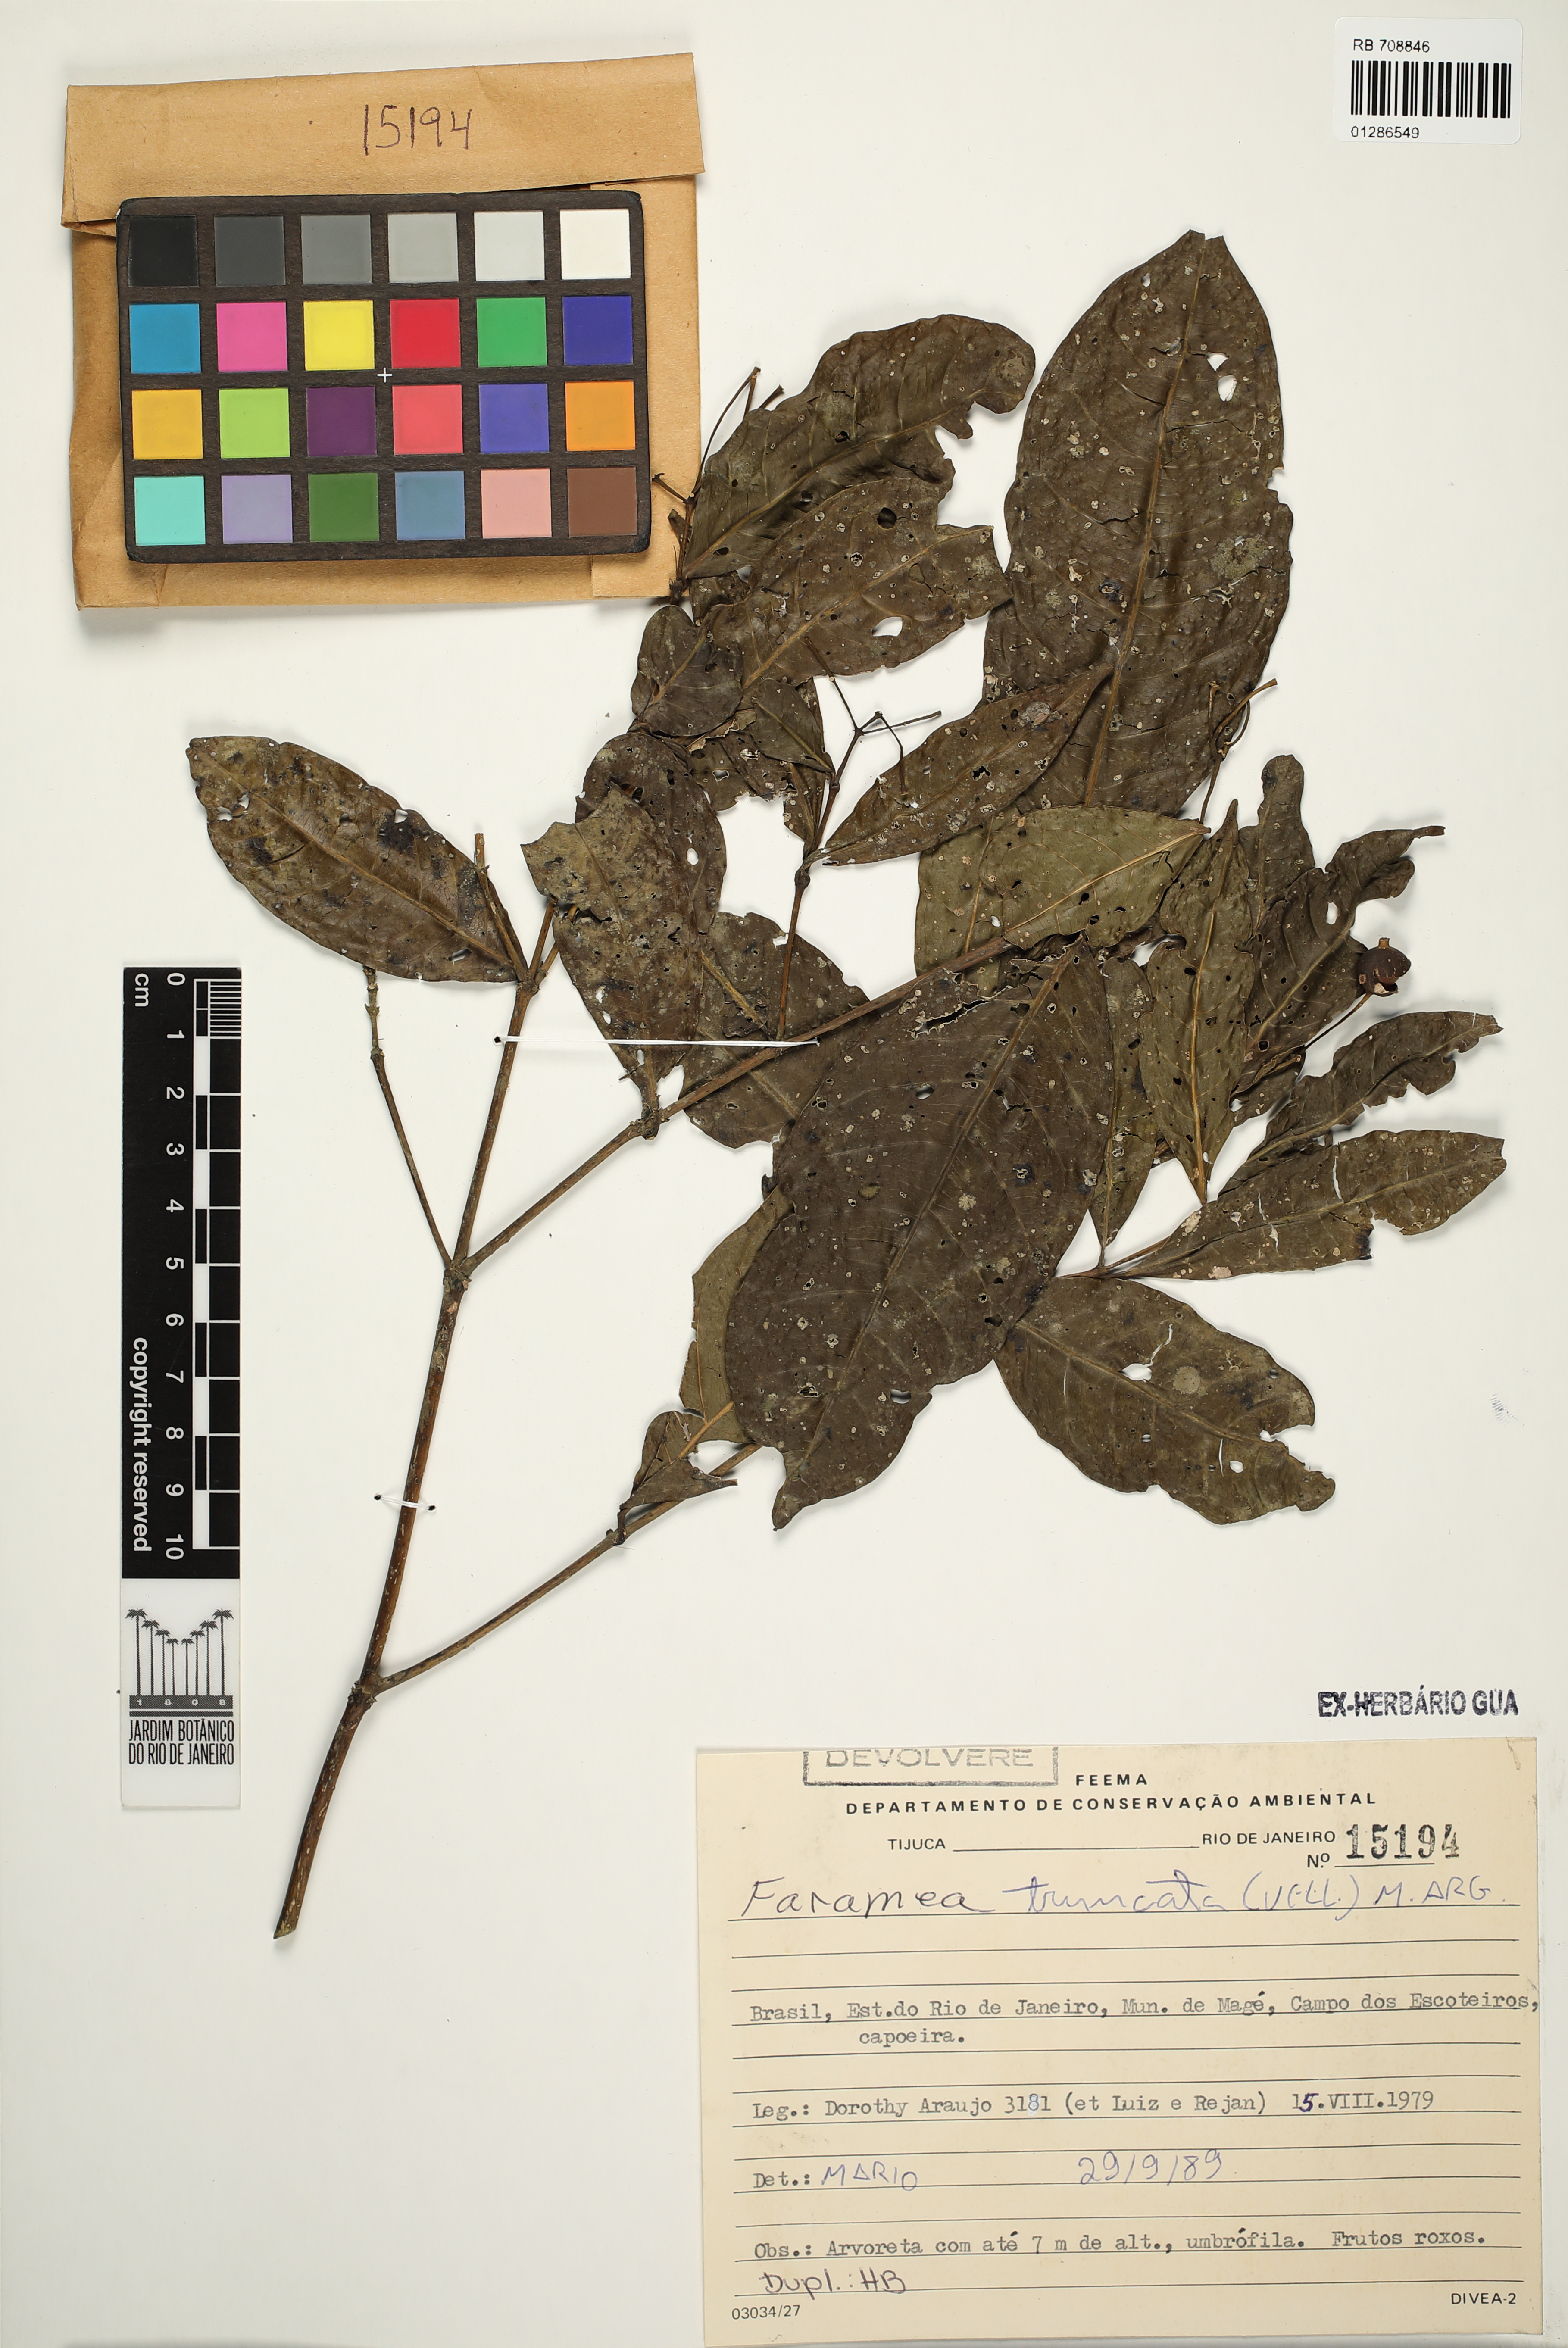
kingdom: Plantae
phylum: Tracheophyta
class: Magnoliopsida
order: Gentianales
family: Rubiaceae
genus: Faramea
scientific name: Faramea caudata
